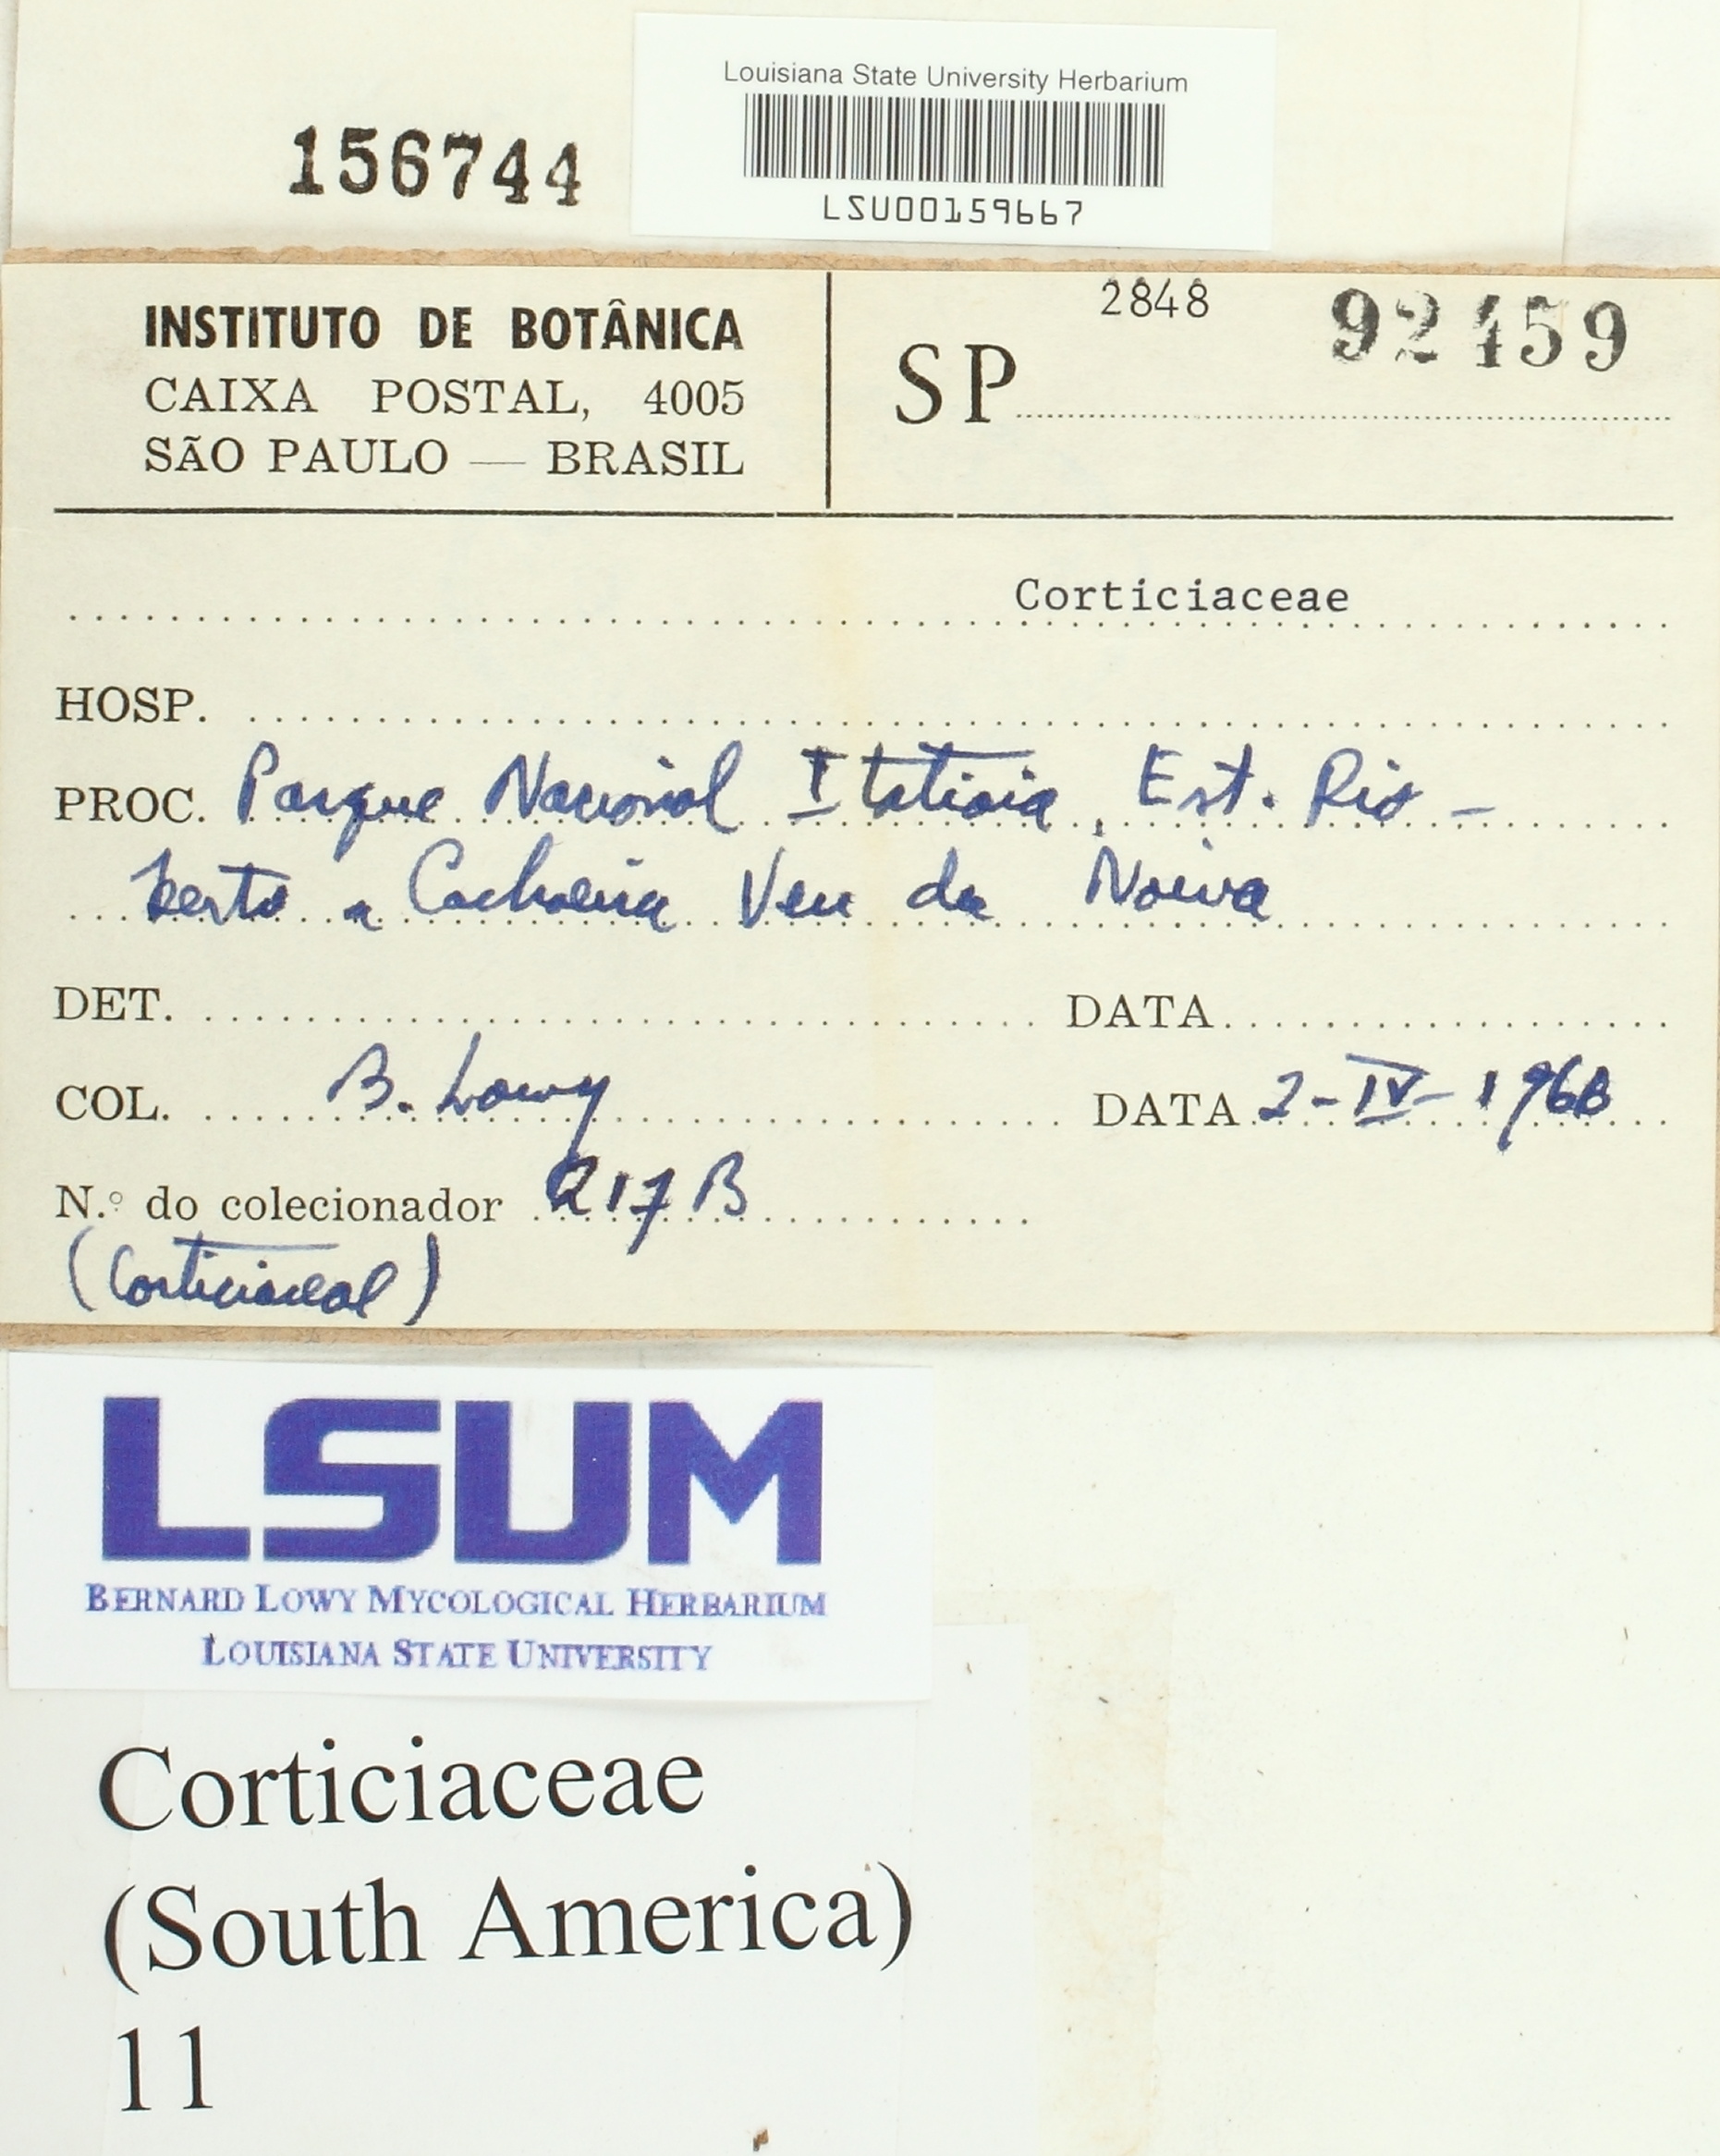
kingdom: Fungi
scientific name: Fungi
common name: Fungi
